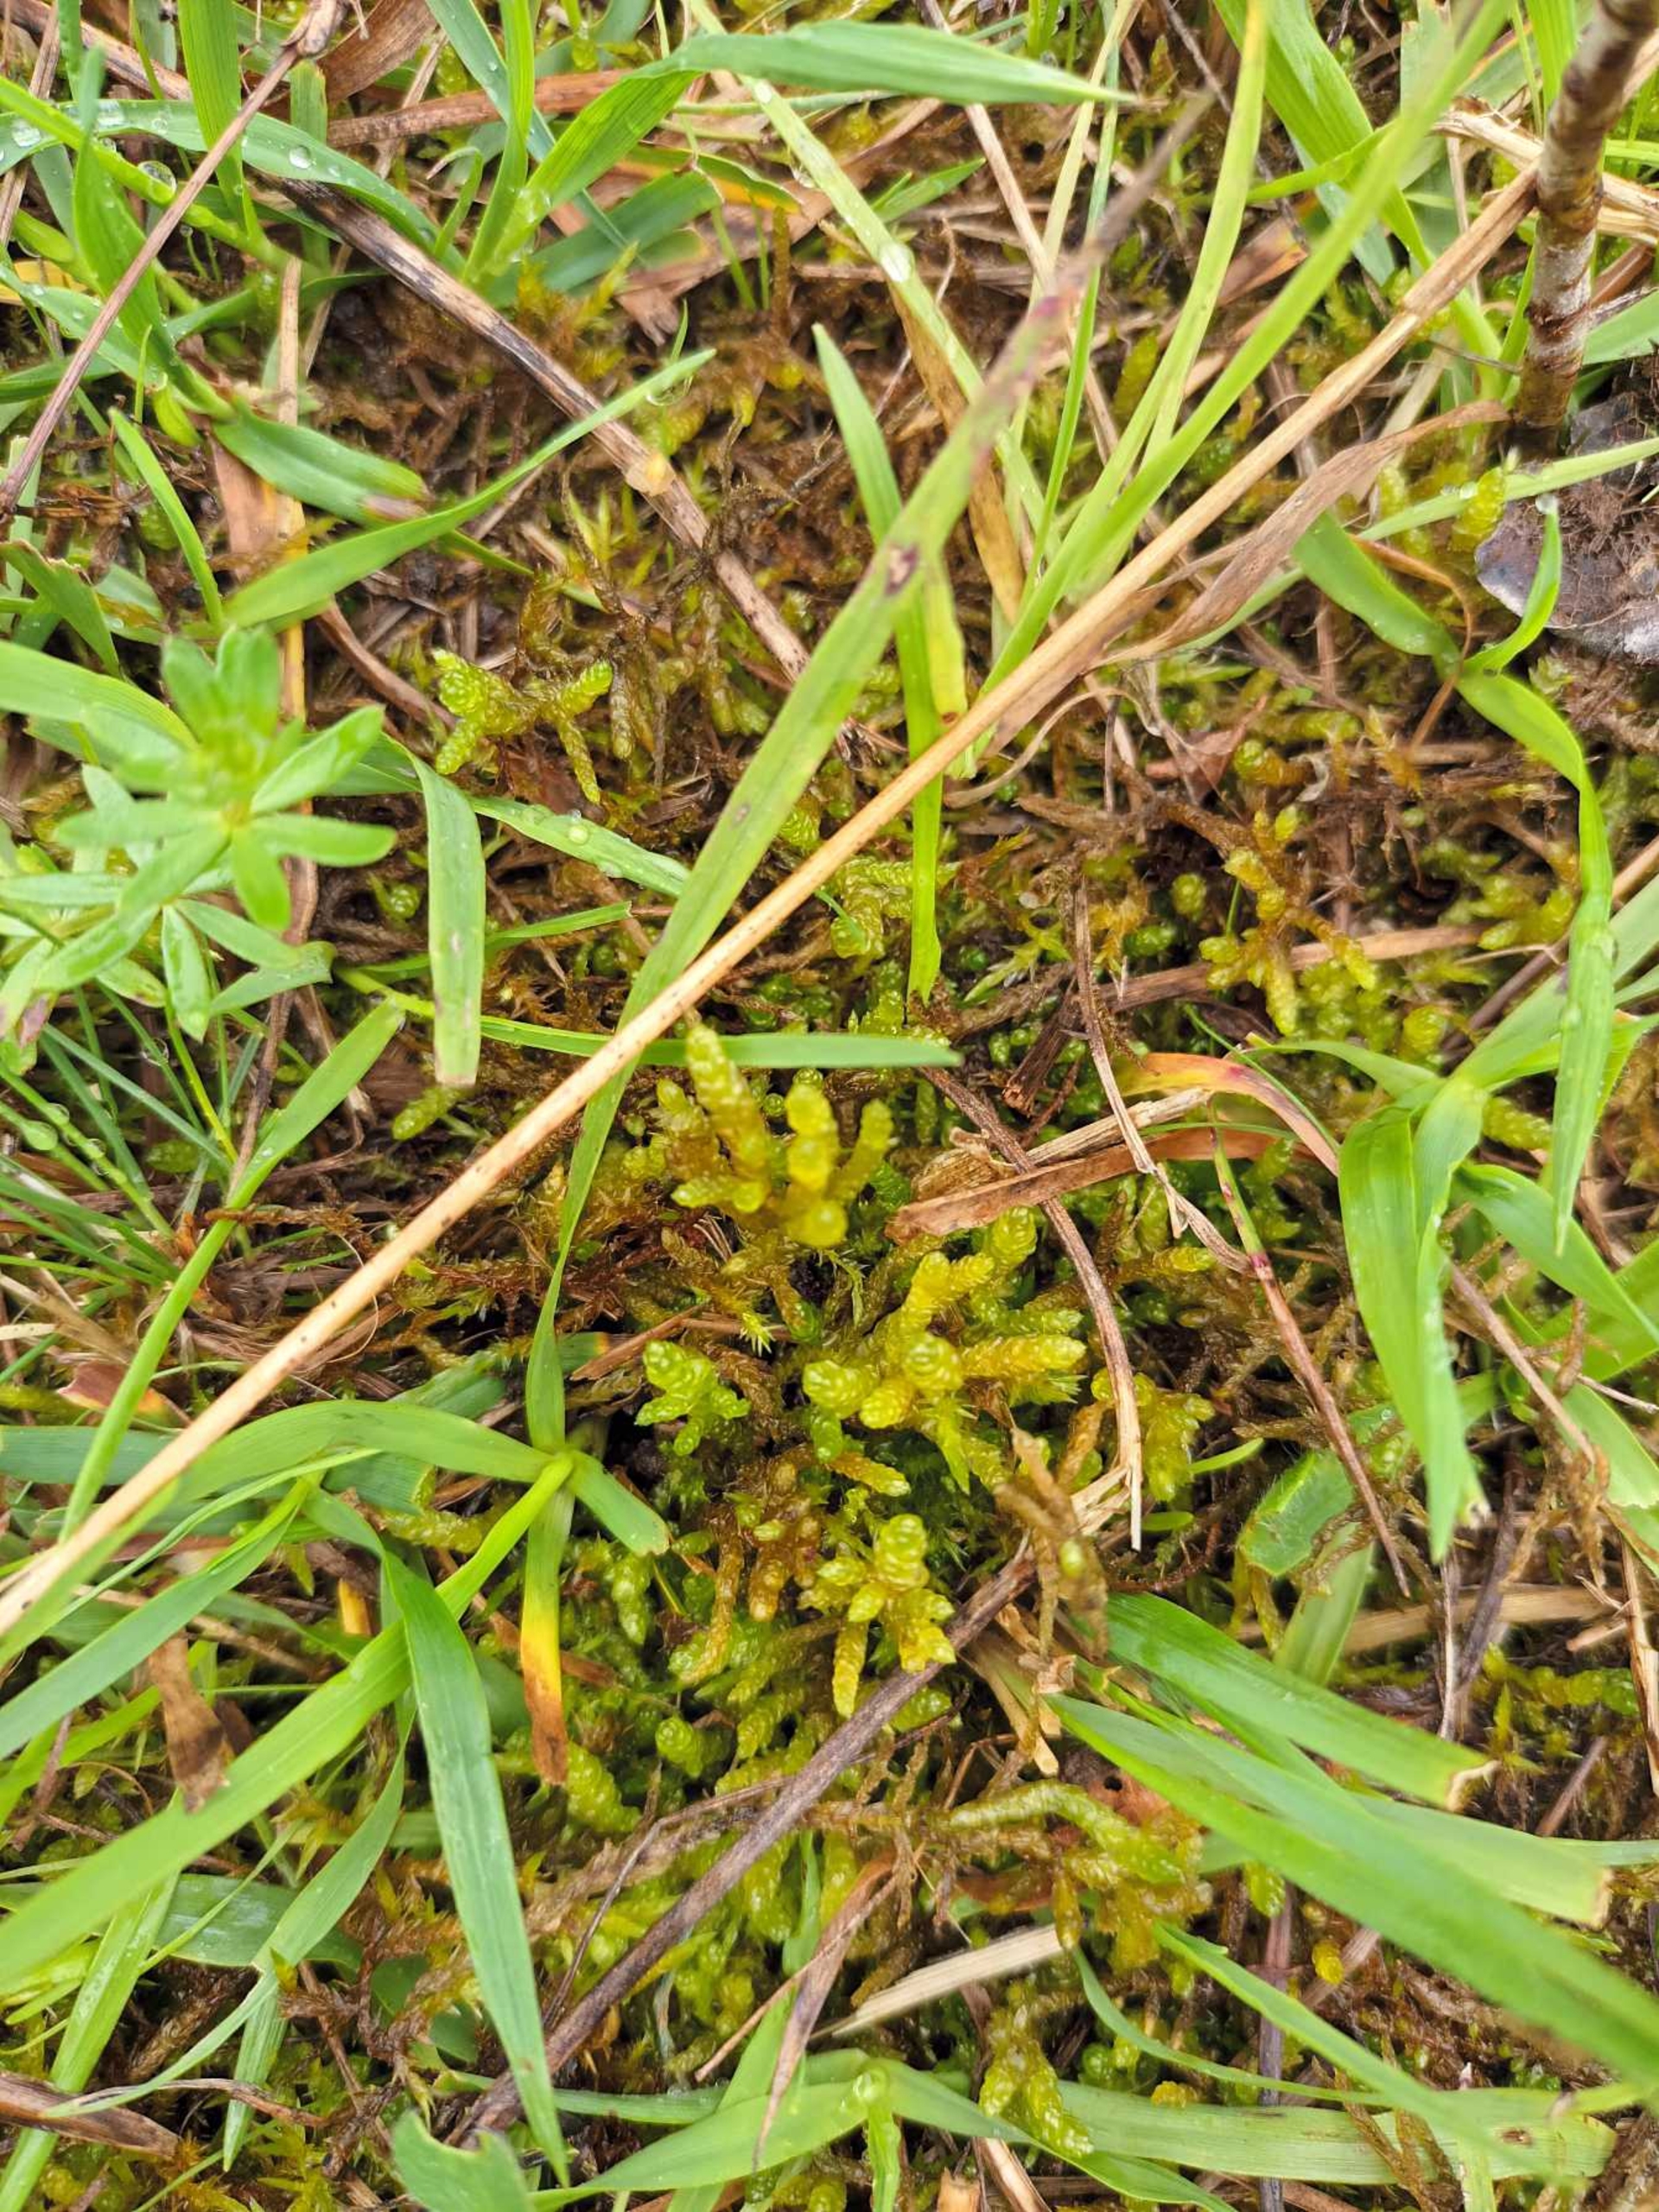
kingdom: Plantae
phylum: Bryophyta
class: Bryopsida
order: Hypnales
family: Brachytheciaceae
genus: Pseudoscleropodium
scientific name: Pseudoscleropodium purum
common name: Hulbladet fedtmos
